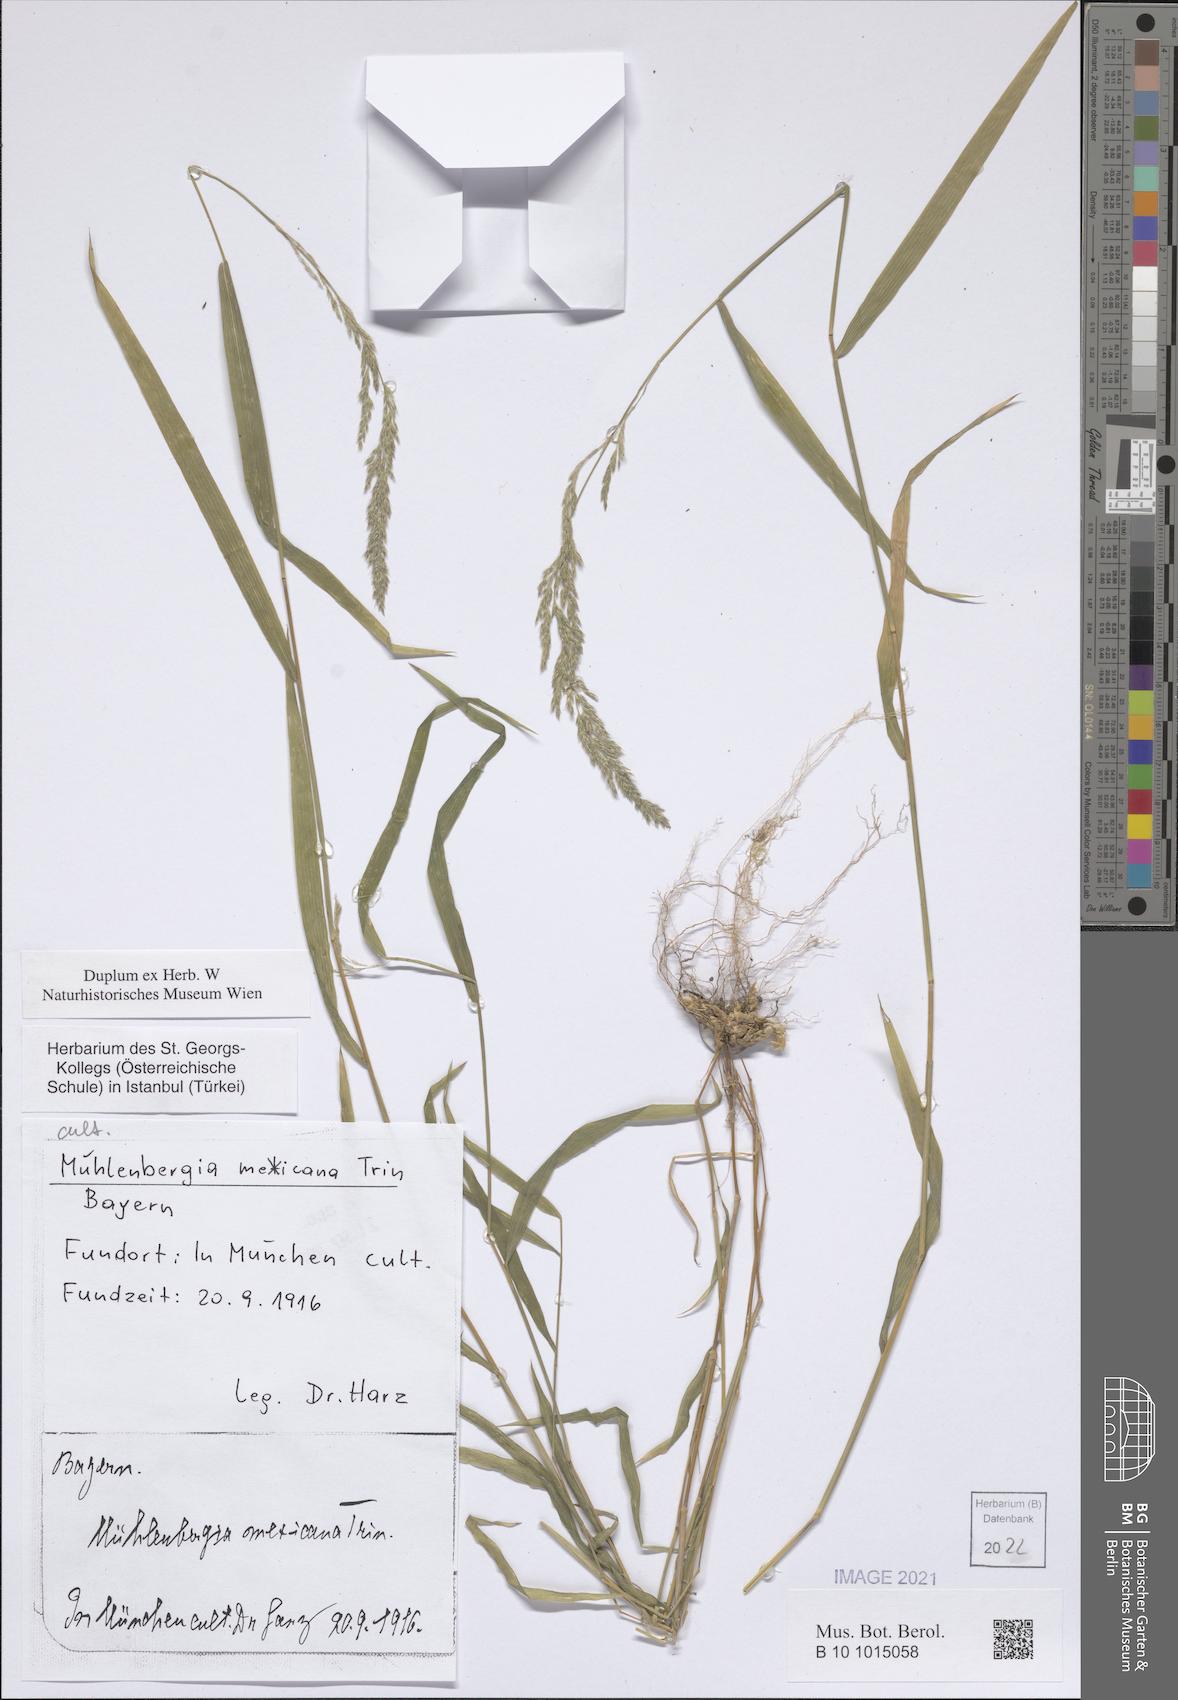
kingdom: Plantae
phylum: Tracheophyta
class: Liliopsida
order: Poales
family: Poaceae
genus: Muhlenbergia
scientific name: Muhlenbergia mexicana
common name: Mexican muhly
